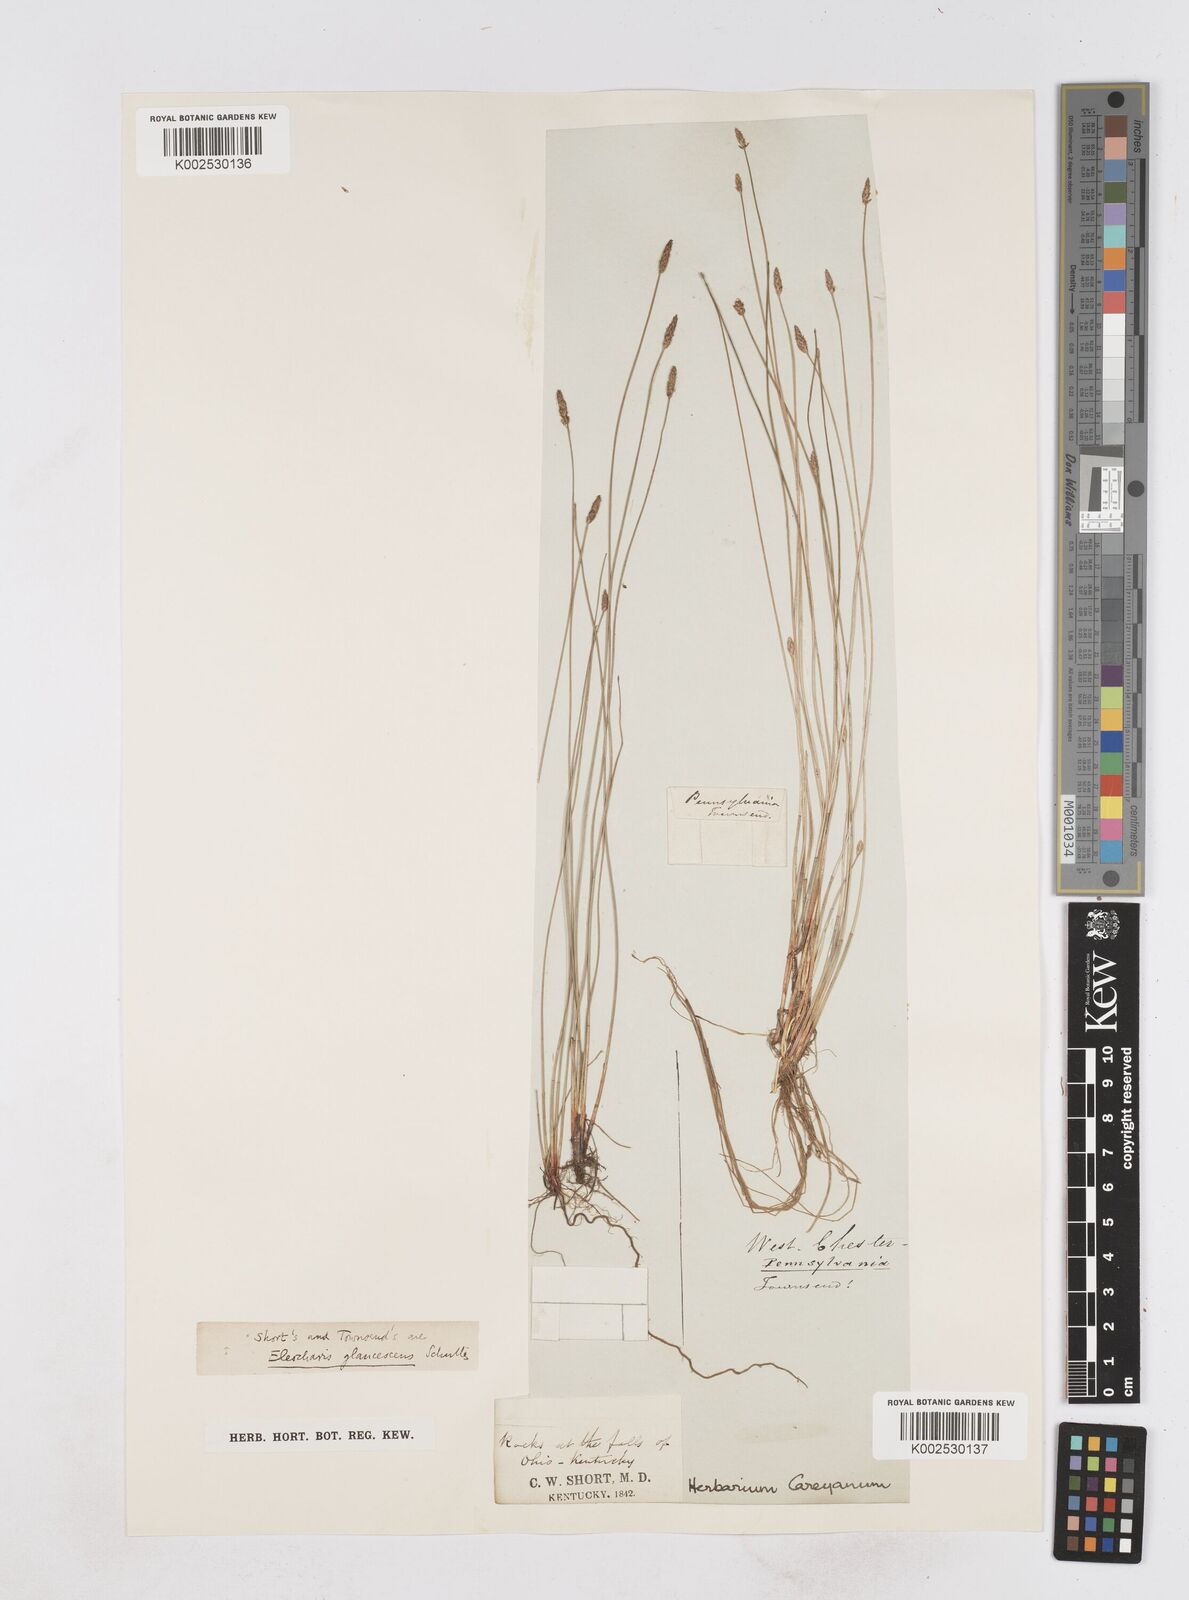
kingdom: Plantae
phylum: Tracheophyta
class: Liliopsida
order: Poales
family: Cyperaceae
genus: Eleocharis
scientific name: Eleocharis erythropoda
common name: Bald spikerush
